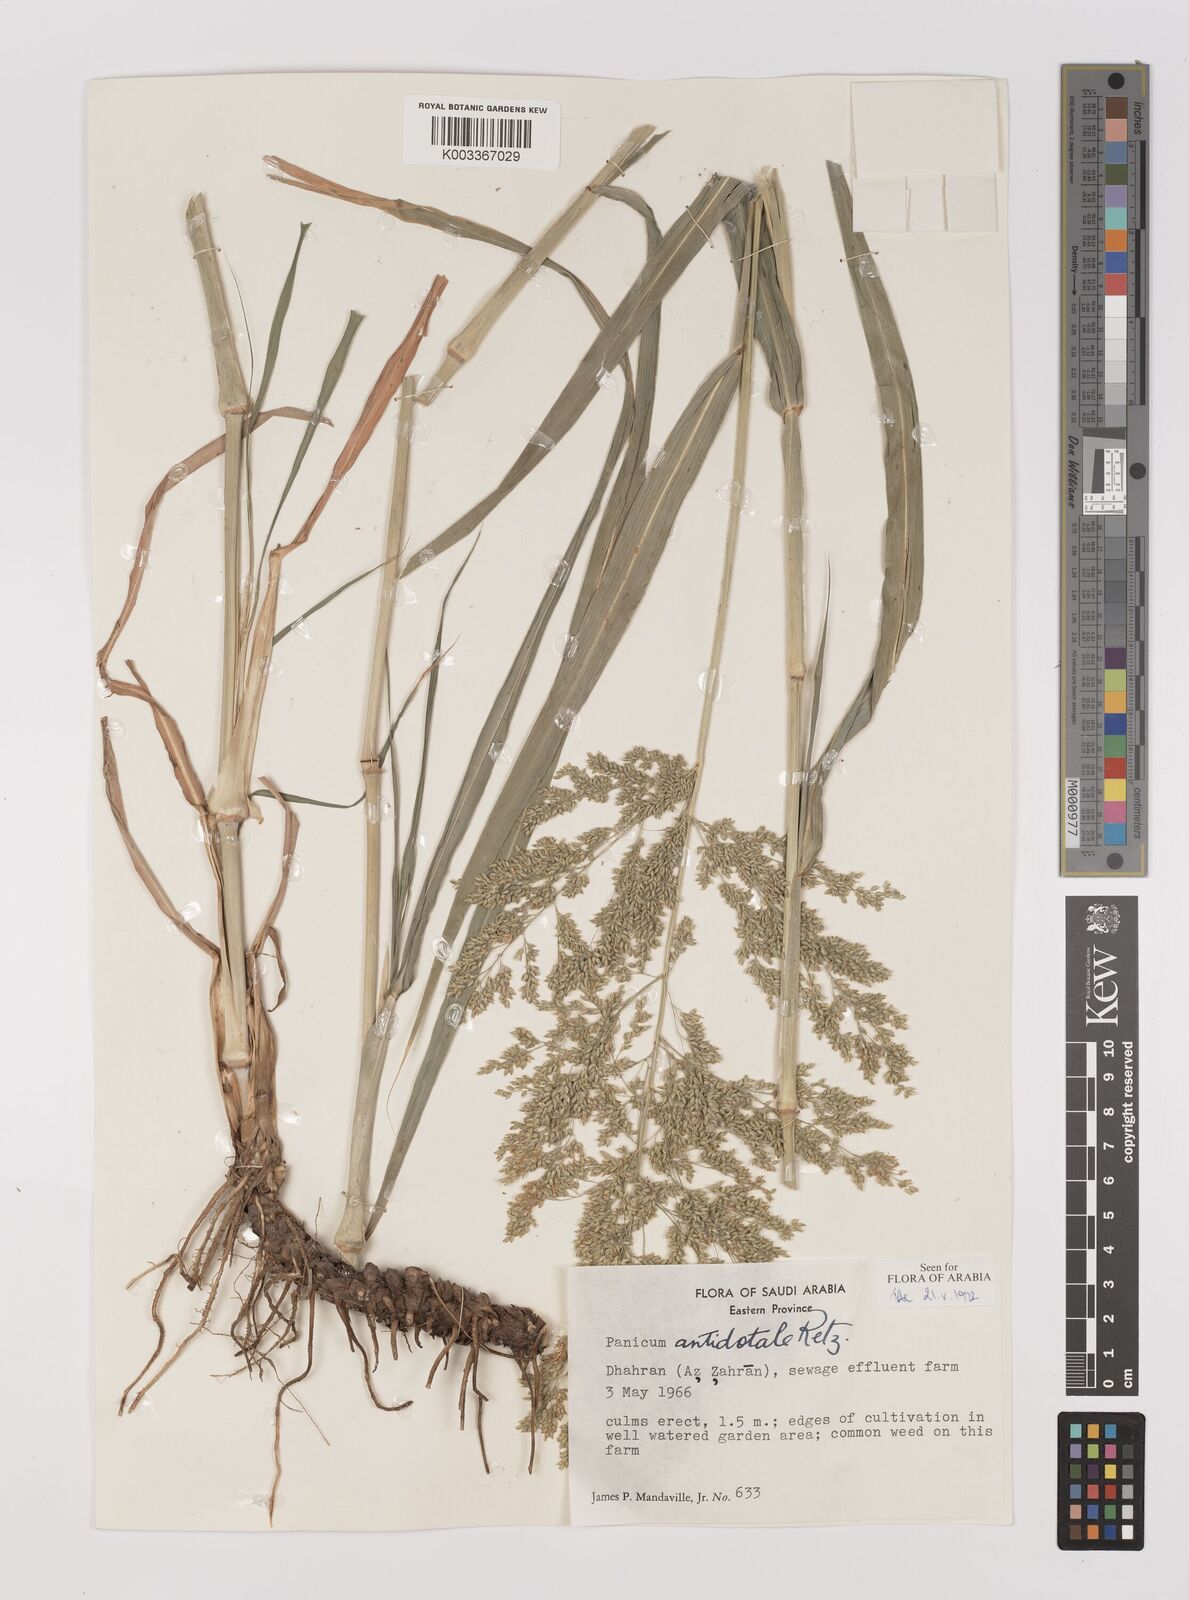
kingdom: Plantae
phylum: Tracheophyta
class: Liliopsida
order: Poales
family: Poaceae
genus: Panicum
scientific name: Panicum antidotale
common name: Blue panicum
